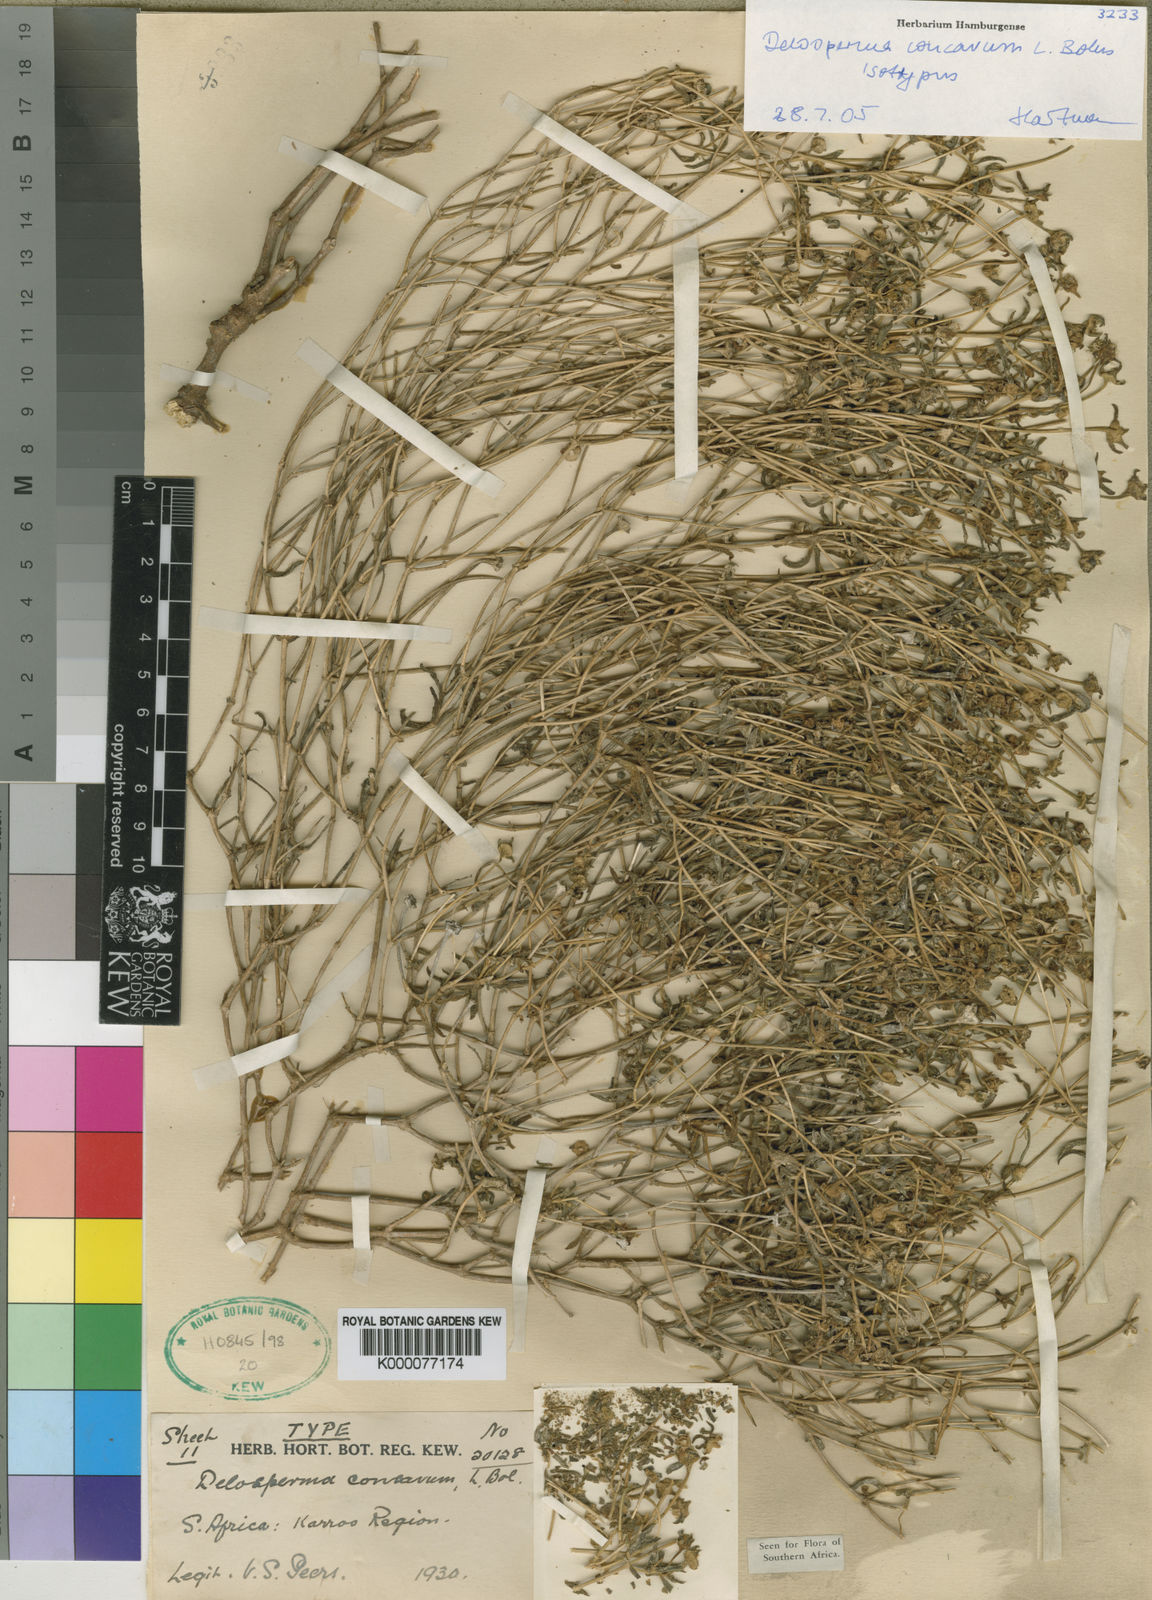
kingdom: Plantae
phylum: Tracheophyta
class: Magnoliopsida
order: Caryophyllales
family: Aizoaceae
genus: Delosperma
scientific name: Delosperma concavum
